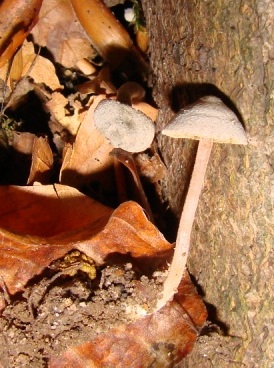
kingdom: Fungi
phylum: Basidiomycota
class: Agaricomycetes
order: Agaricales
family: Inocybaceae
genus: Inocybe
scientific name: Inocybe petiginosa
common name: liden trævlhat
